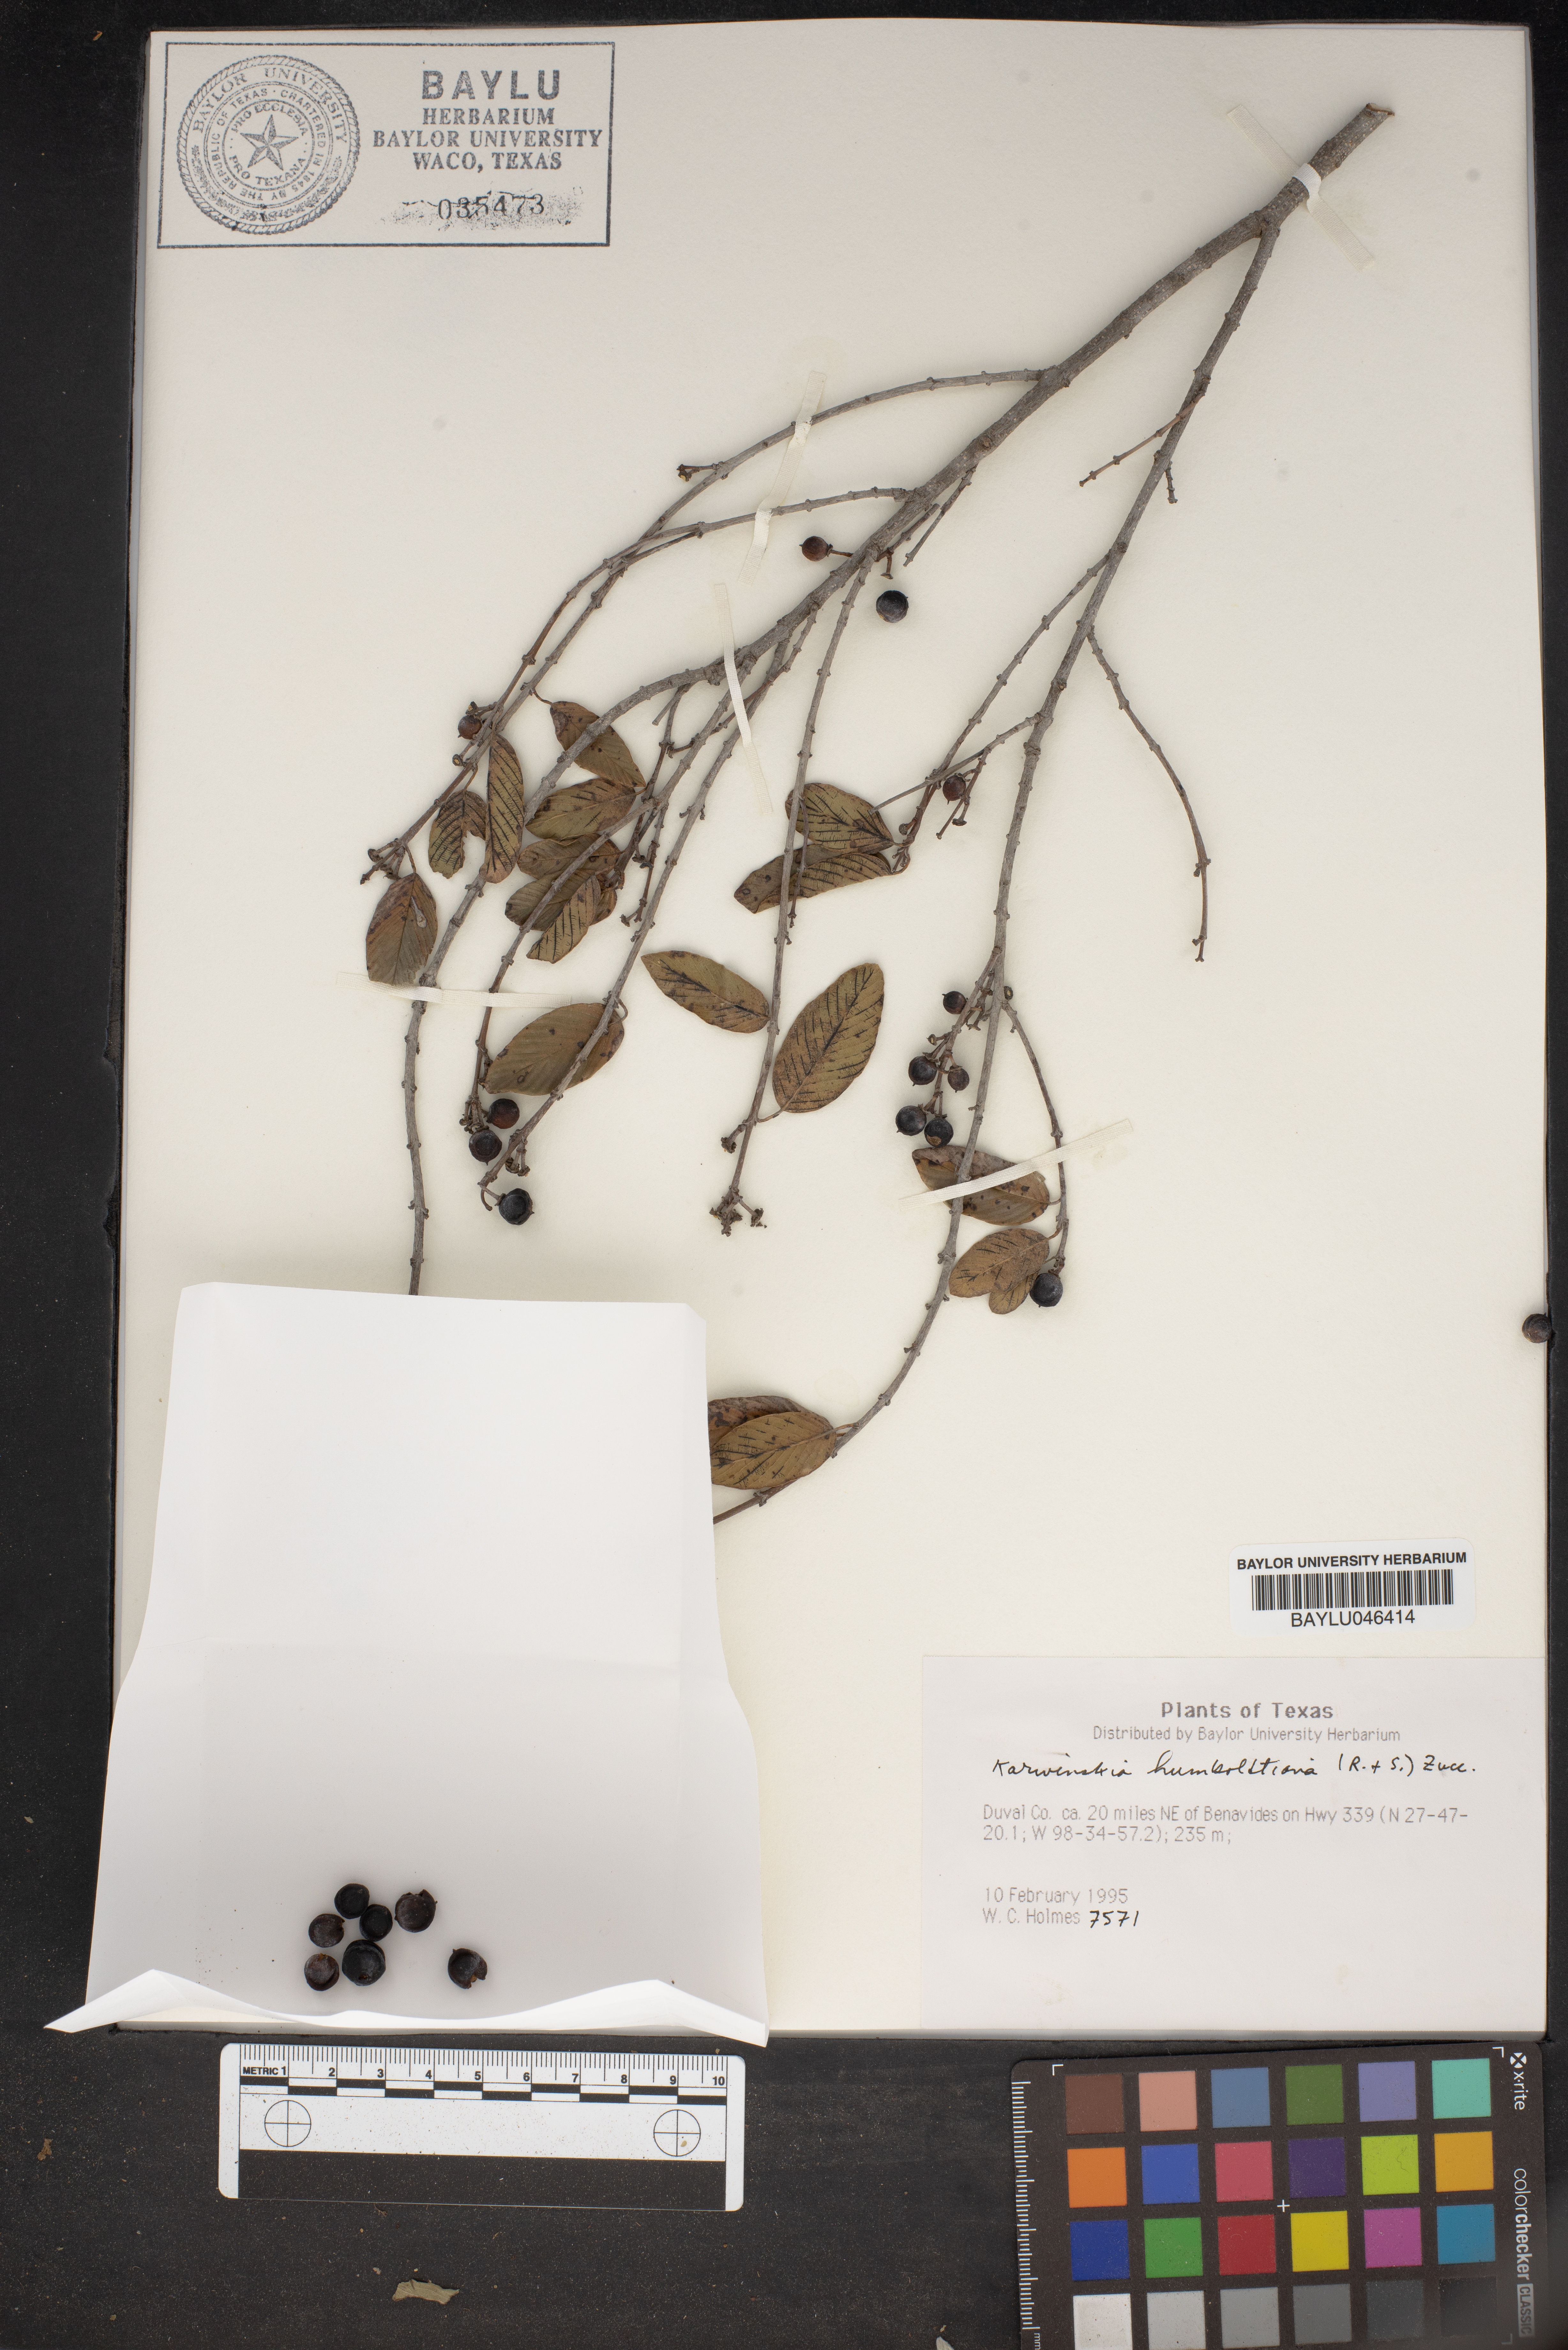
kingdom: Plantae
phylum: Tracheophyta
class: Magnoliopsida
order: Rosales
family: Rhamnaceae
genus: Karwinskia
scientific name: Karwinskia humboldtiana
